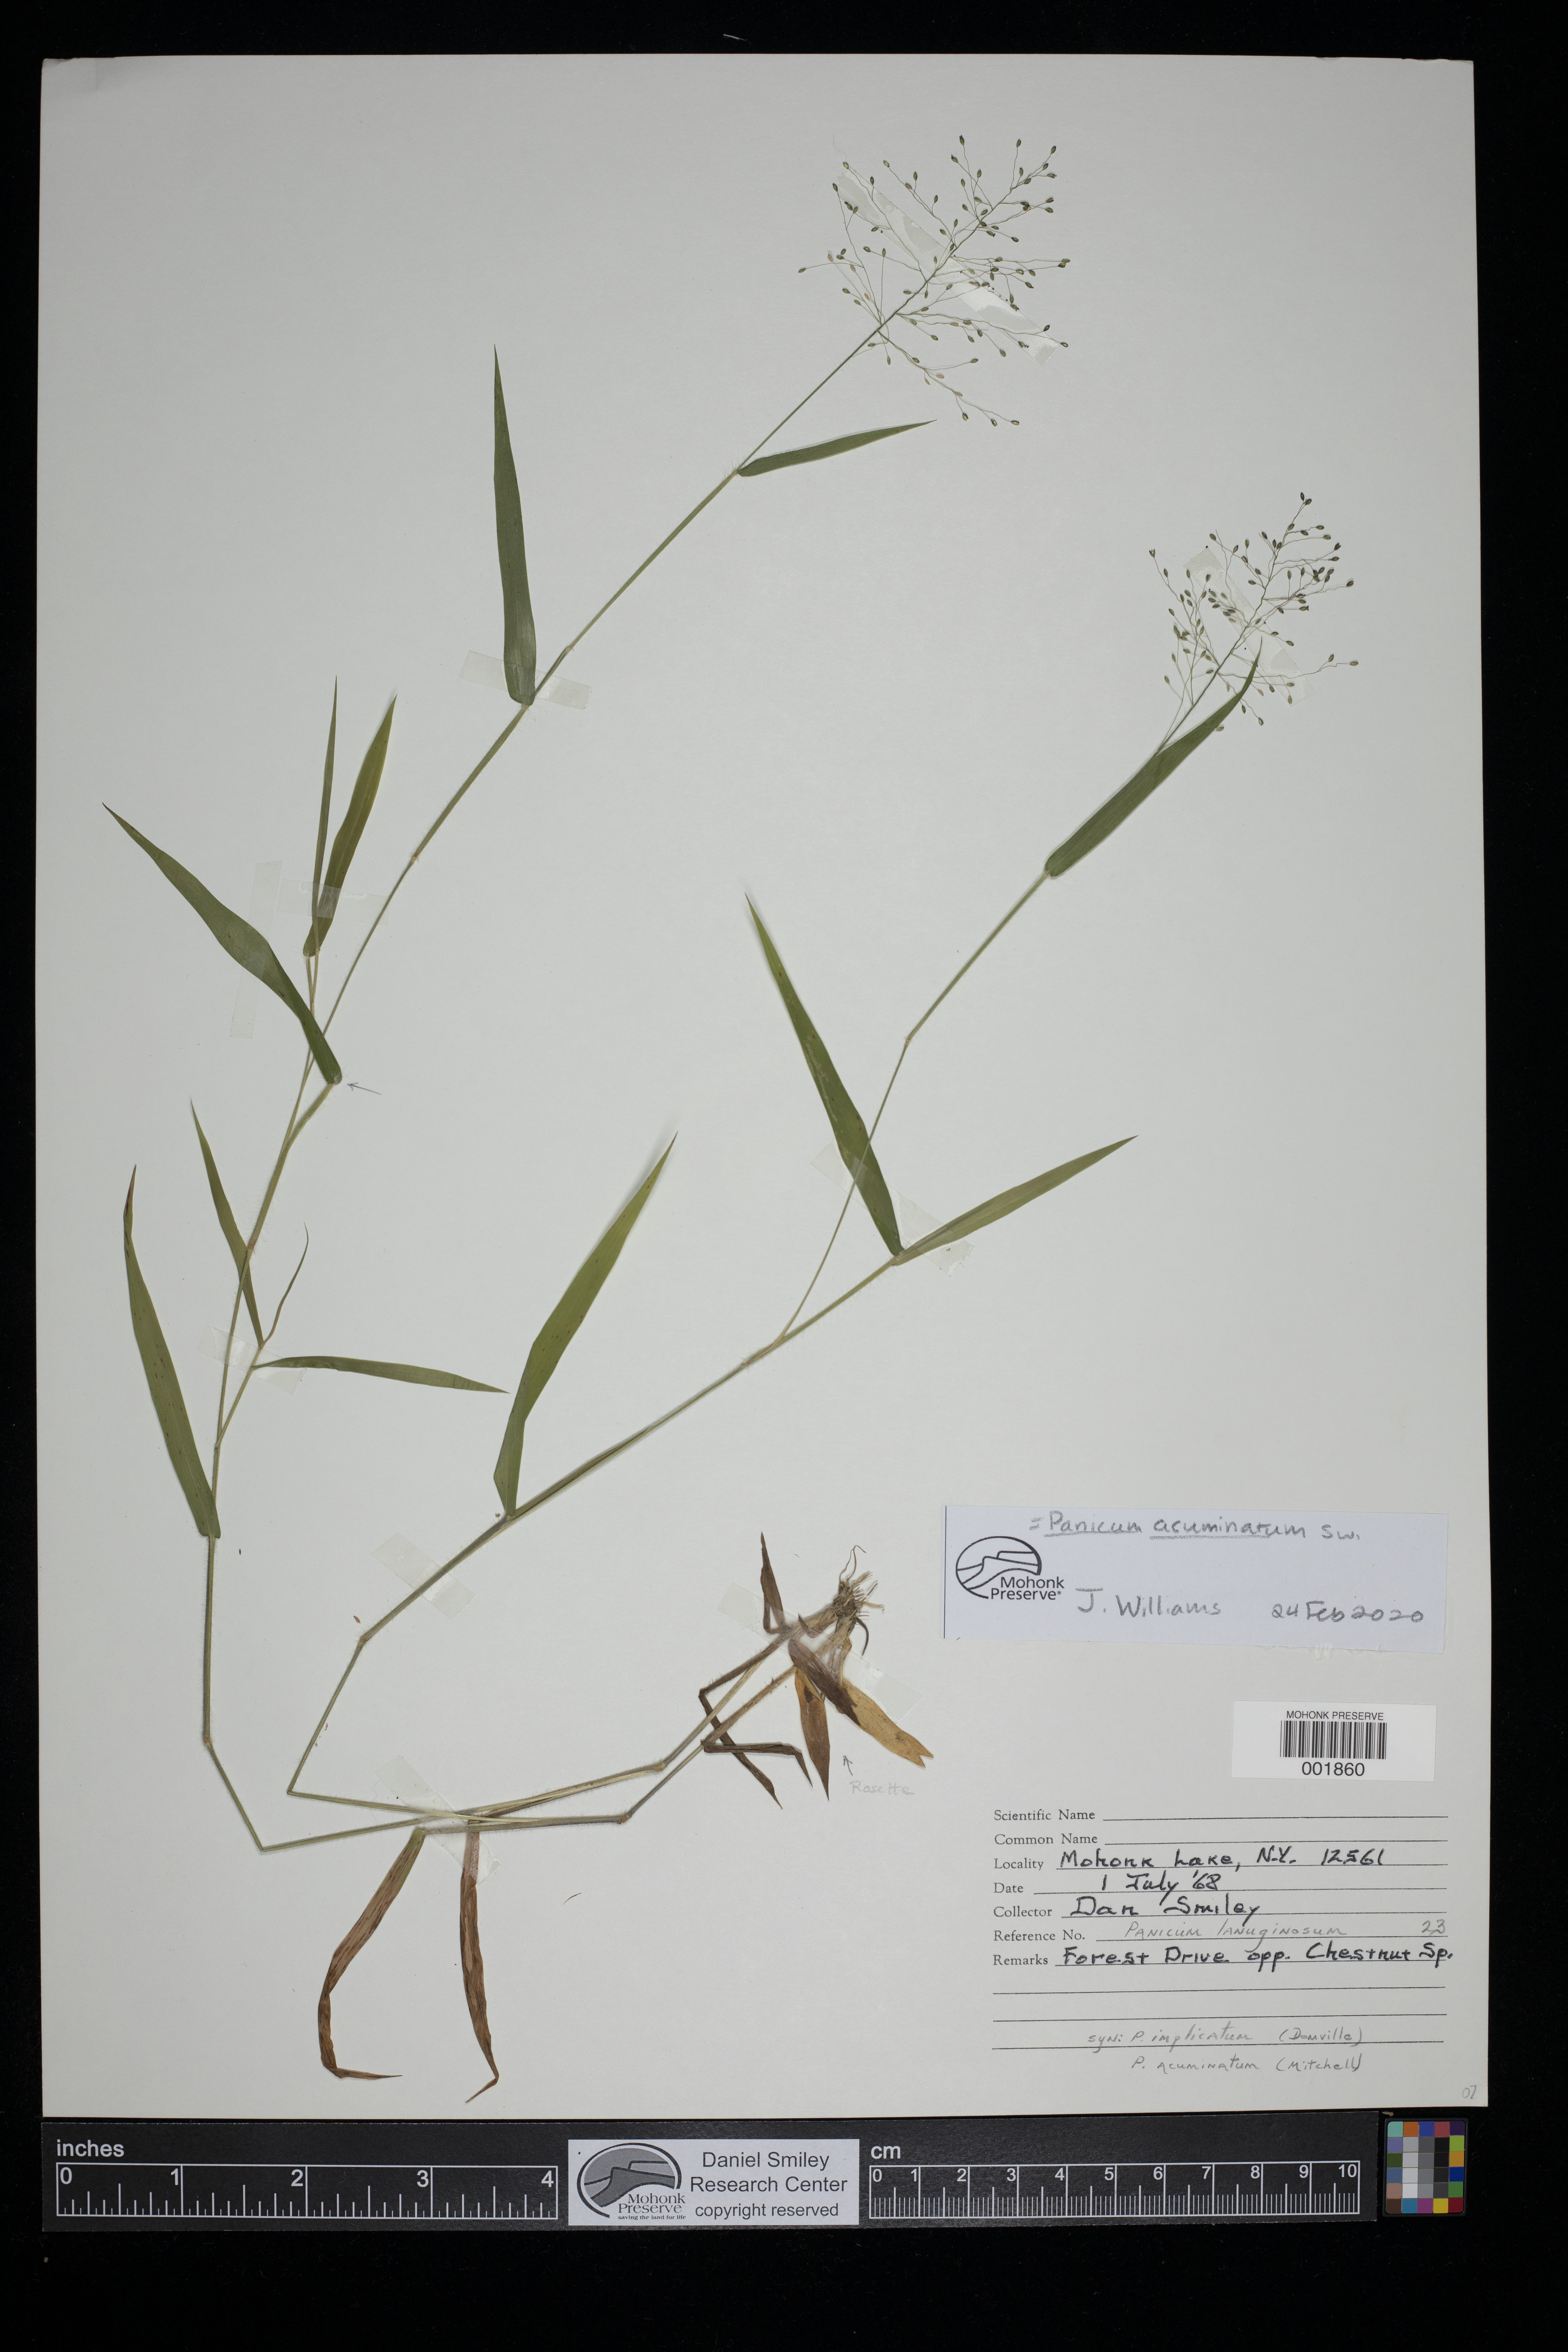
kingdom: Plantae
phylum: Tracheophyta
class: Liliopsida
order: Poales
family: Poaceae
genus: Dichanthelium
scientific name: Dichanthelium acuminatum
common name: Hairy panic grass
